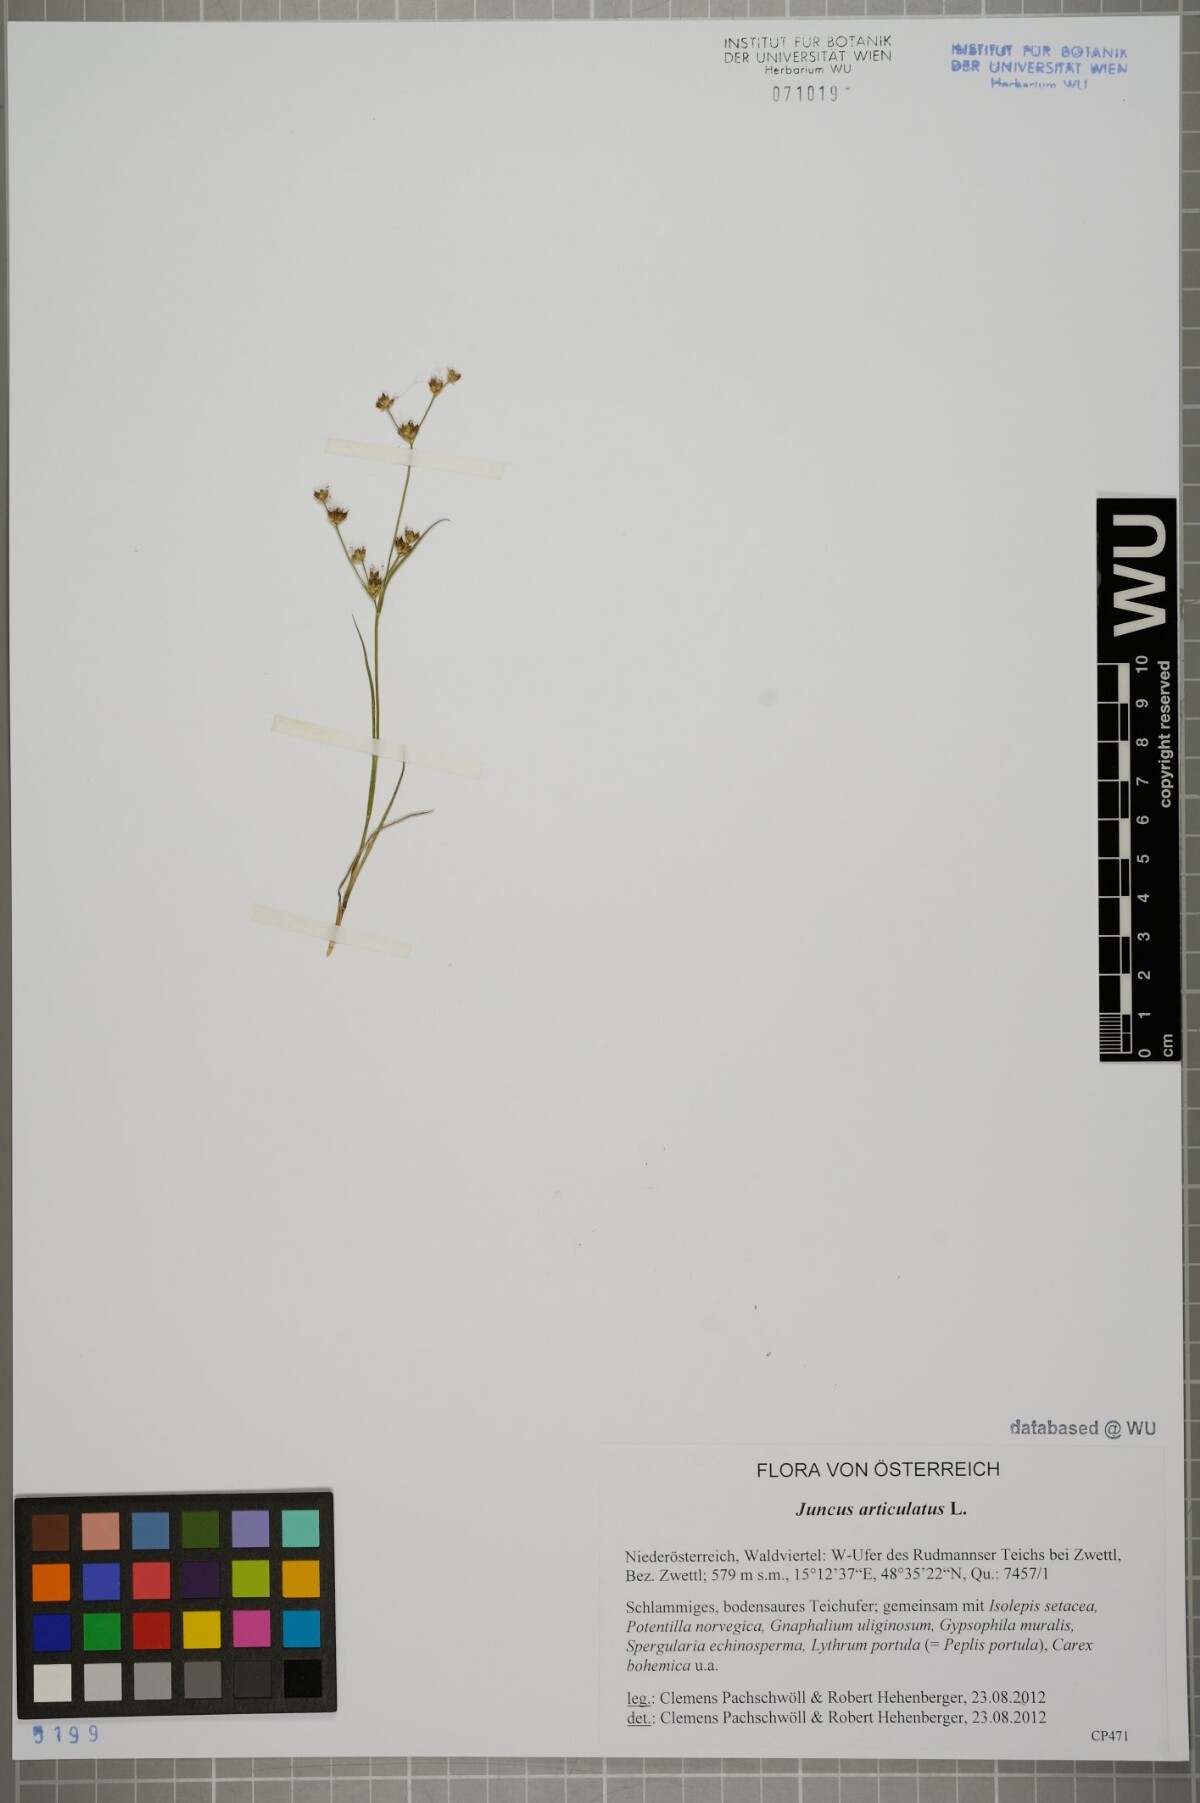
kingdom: Plantae
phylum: Tracheophyta
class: Liliopsida
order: Poales
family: Juncaceae
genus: Juncus
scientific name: Juncus articulatus
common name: Jointed rush
